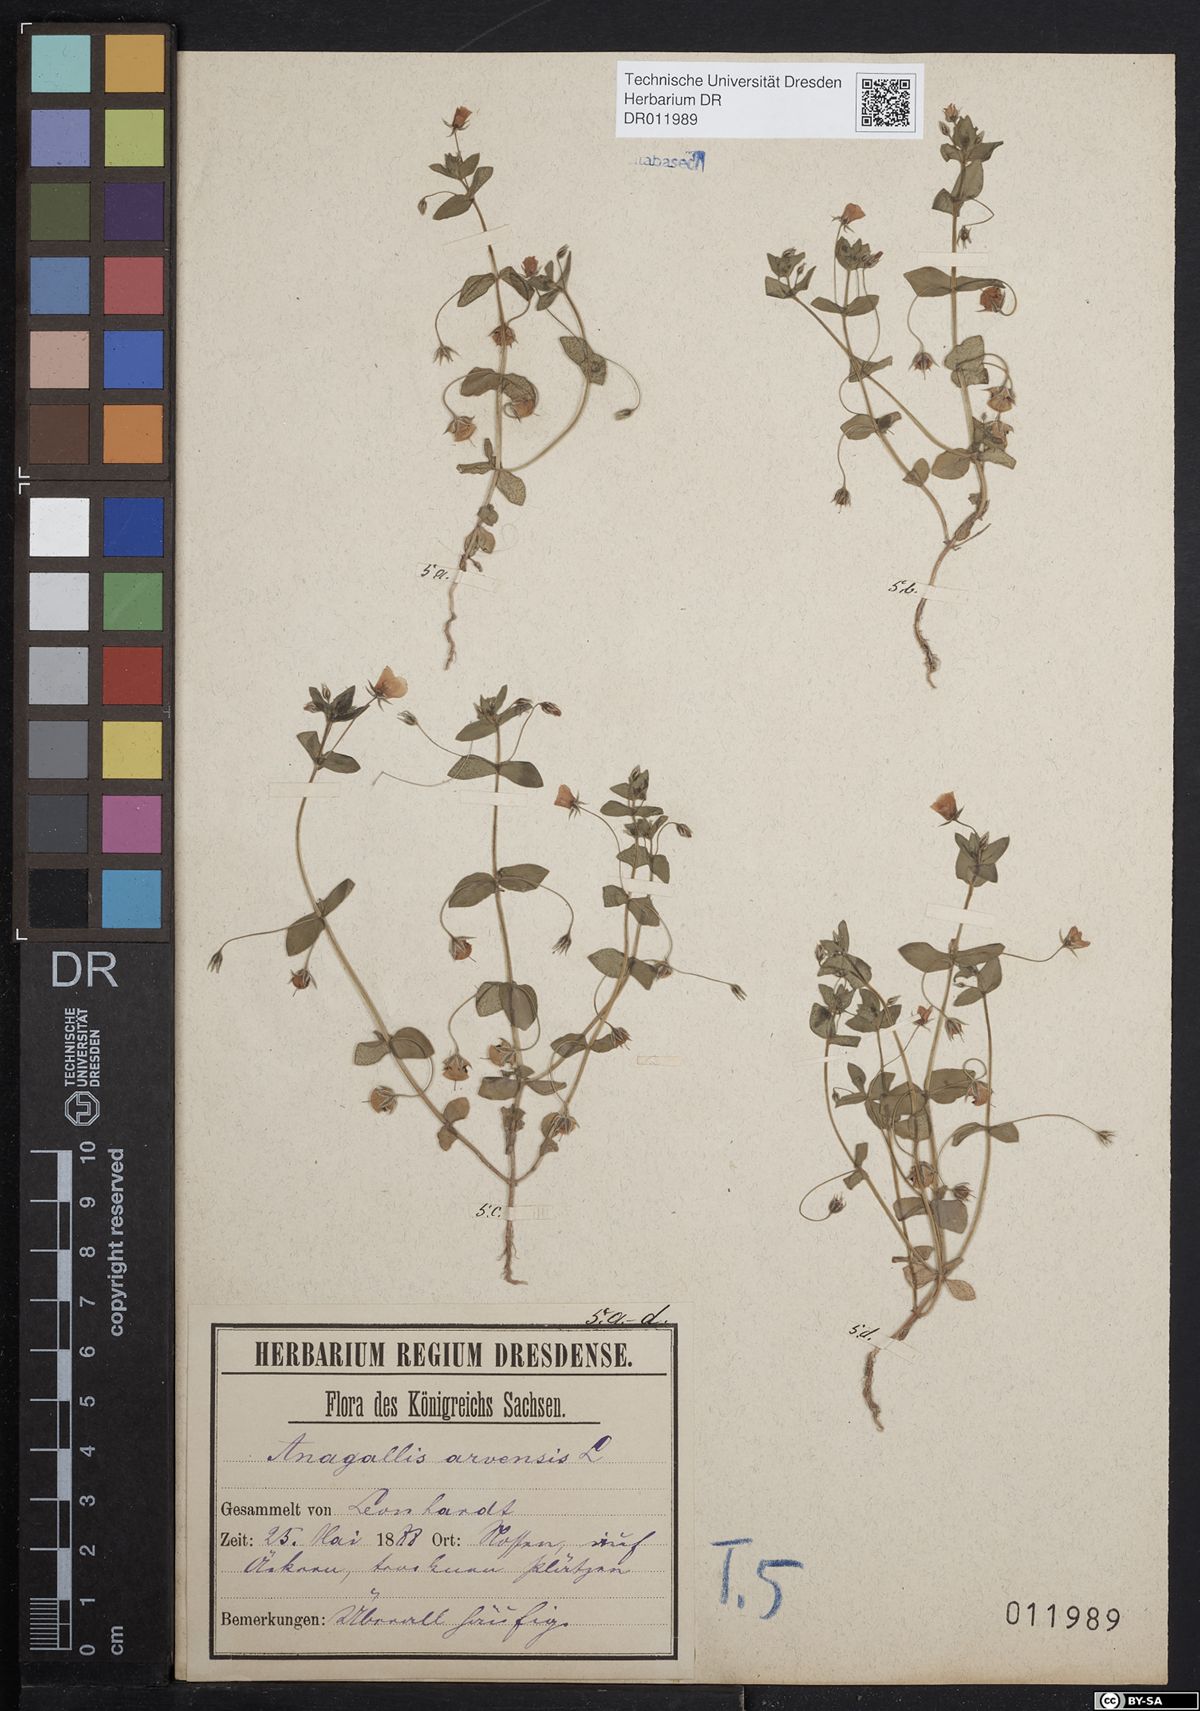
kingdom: Plantae
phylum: Tracheophyta
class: Magnoliopsida
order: Ericales
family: Primulaceae
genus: Lysimachia
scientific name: Lysimachia arvensis
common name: Scarlet pimpernel
